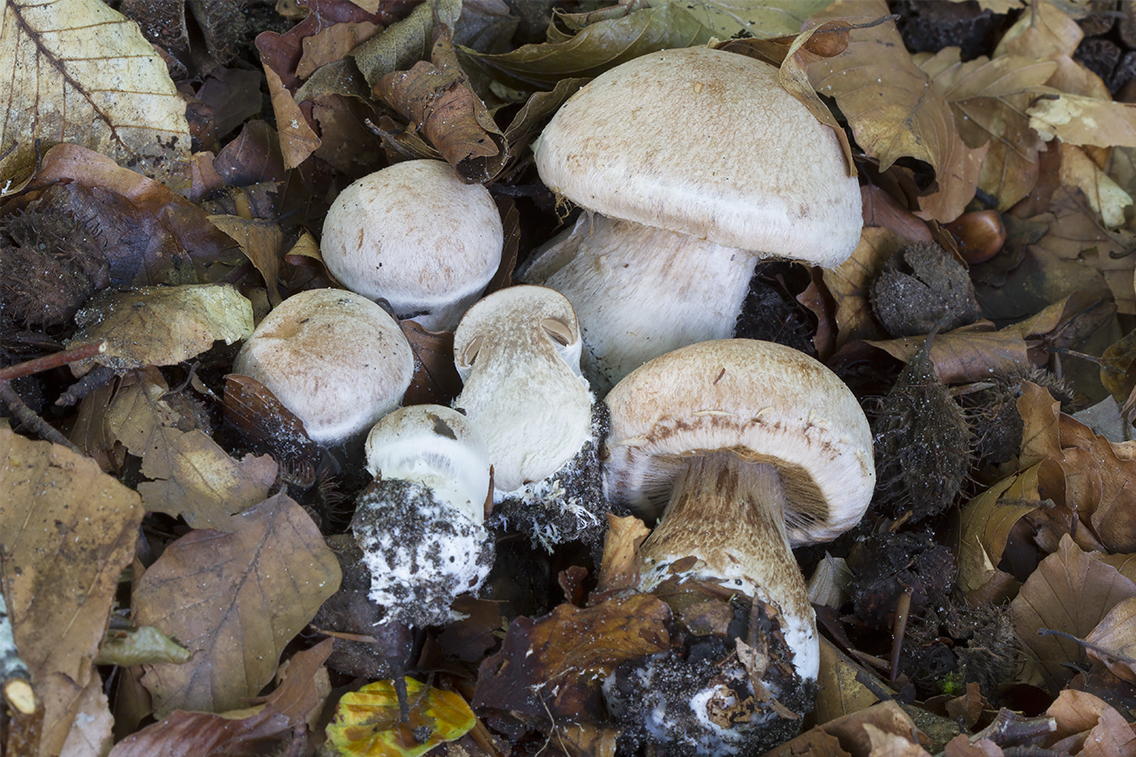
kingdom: Fungi
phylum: Basidiomycota
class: Agaricomycetes
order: Agaricales
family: Cortinariaceae
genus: Cortinarius
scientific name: Cortinarius
